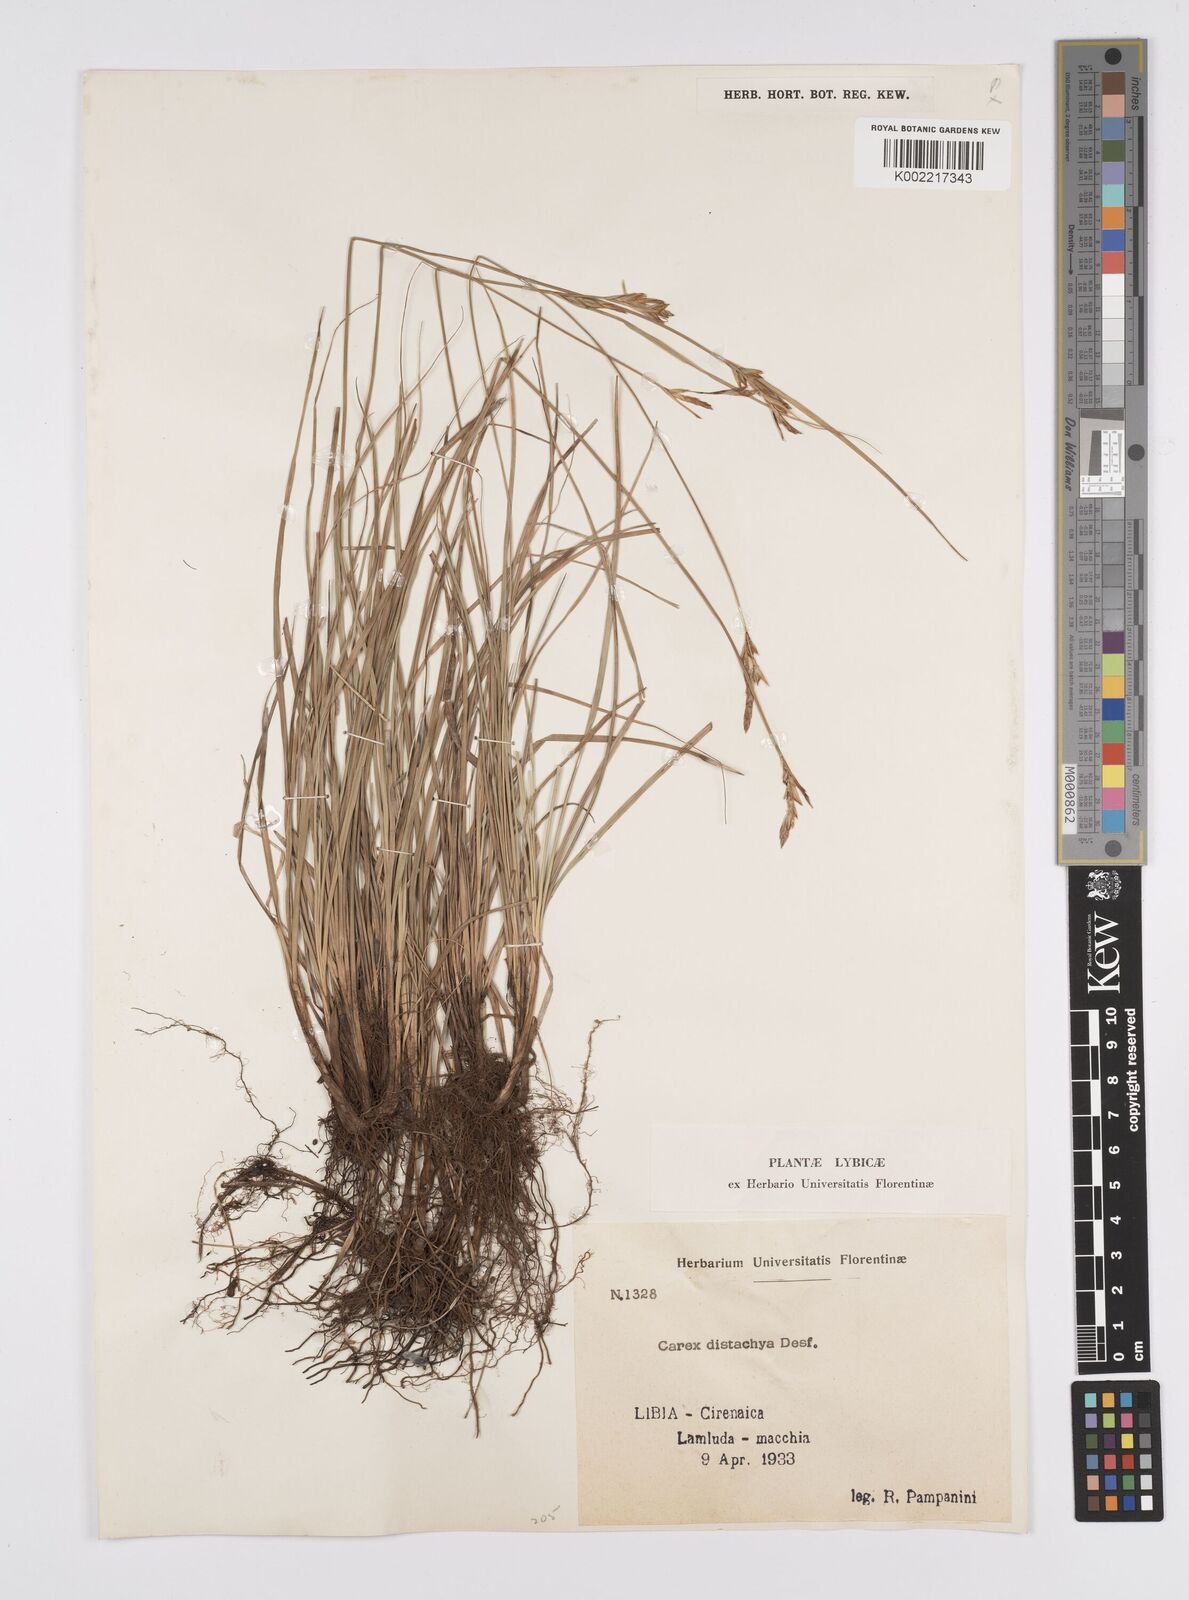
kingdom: Plantae
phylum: Tracheophyta
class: Liliopsida
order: Poales
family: Cyperaceae
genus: Carex
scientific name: Carex distachya
